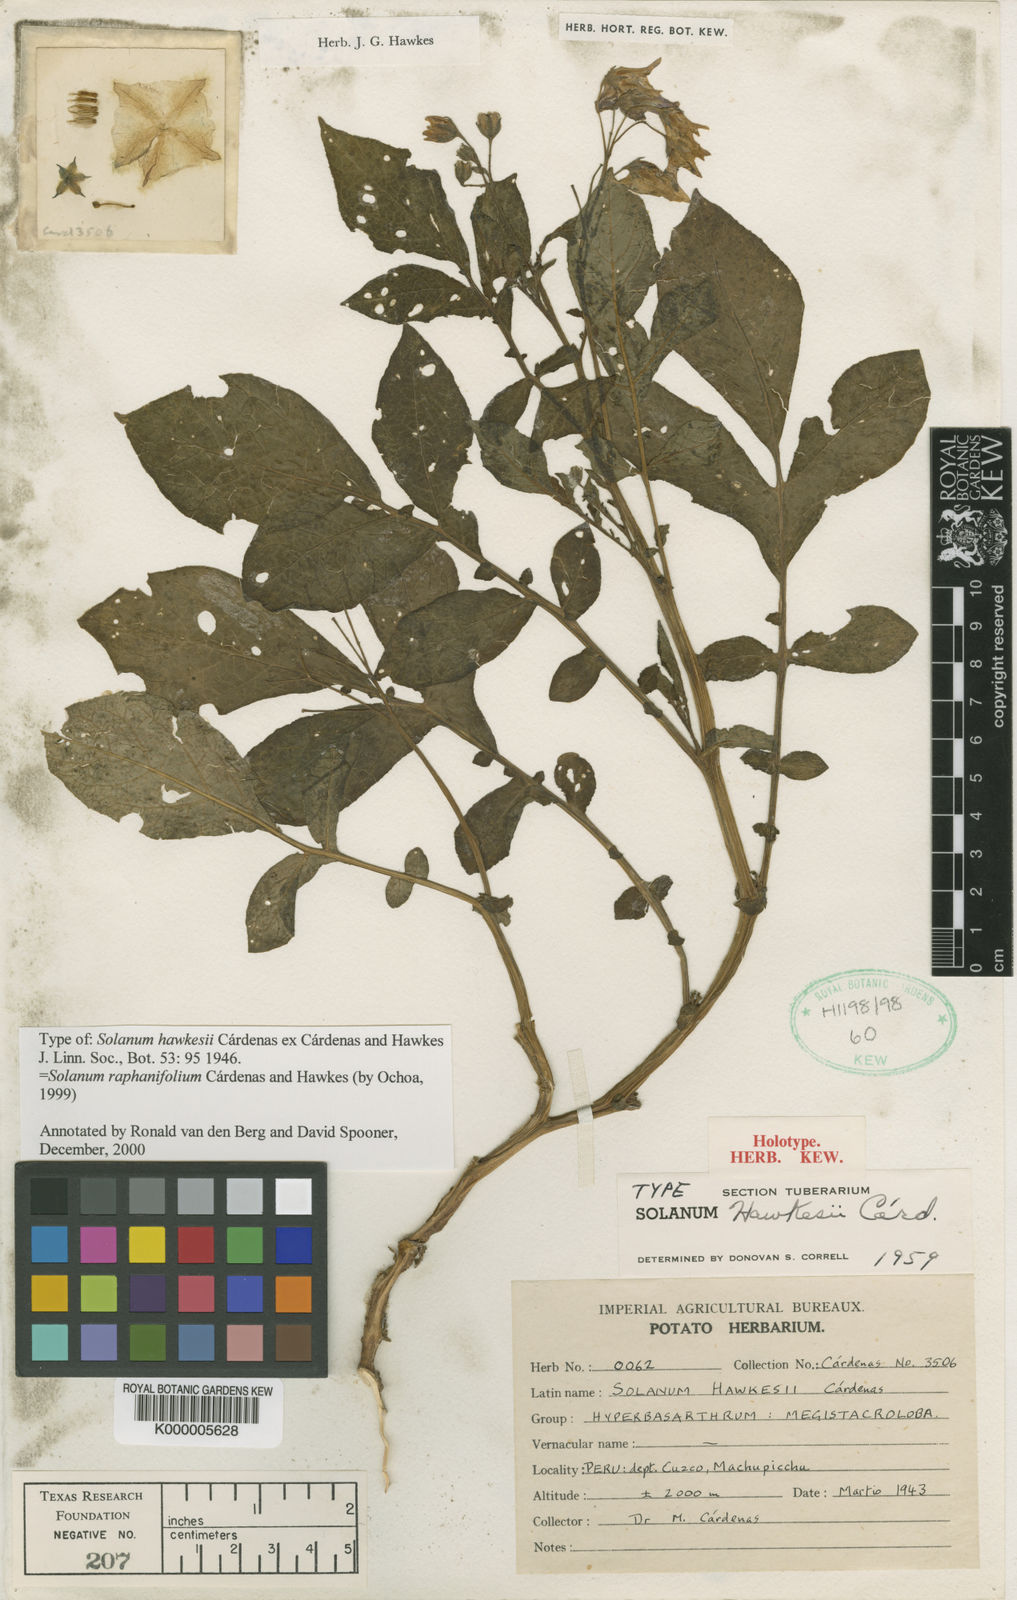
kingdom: Plantae
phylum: Tracheophyta
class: Magnoliopsida
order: Solanales
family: Solanaceae
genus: Solanum
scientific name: Solanum
